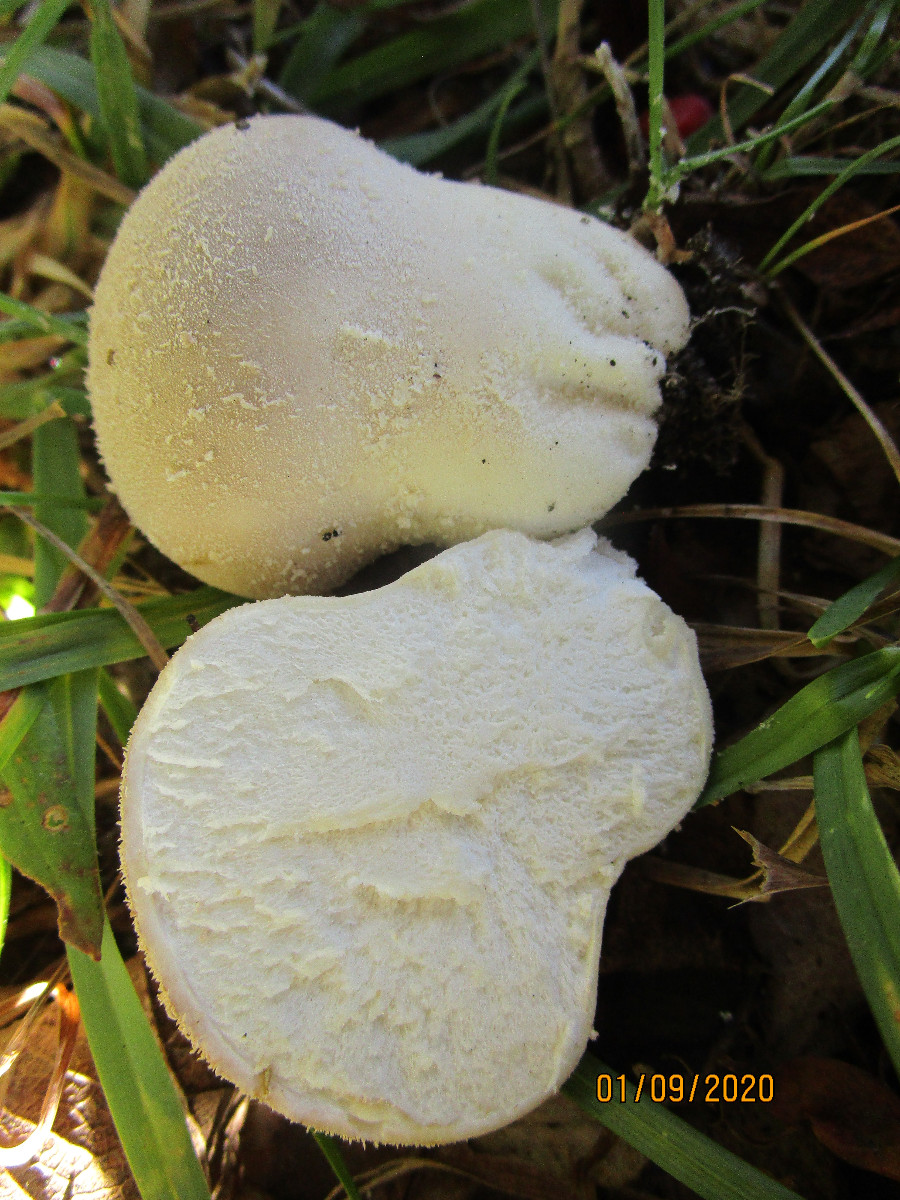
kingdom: Fungi
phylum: Basidiomycota
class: Agaricomycetes
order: Agaricales
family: Lycoperdaceae
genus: Lycoperdon
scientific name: Lycoperdon pratense
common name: flad støvbold
